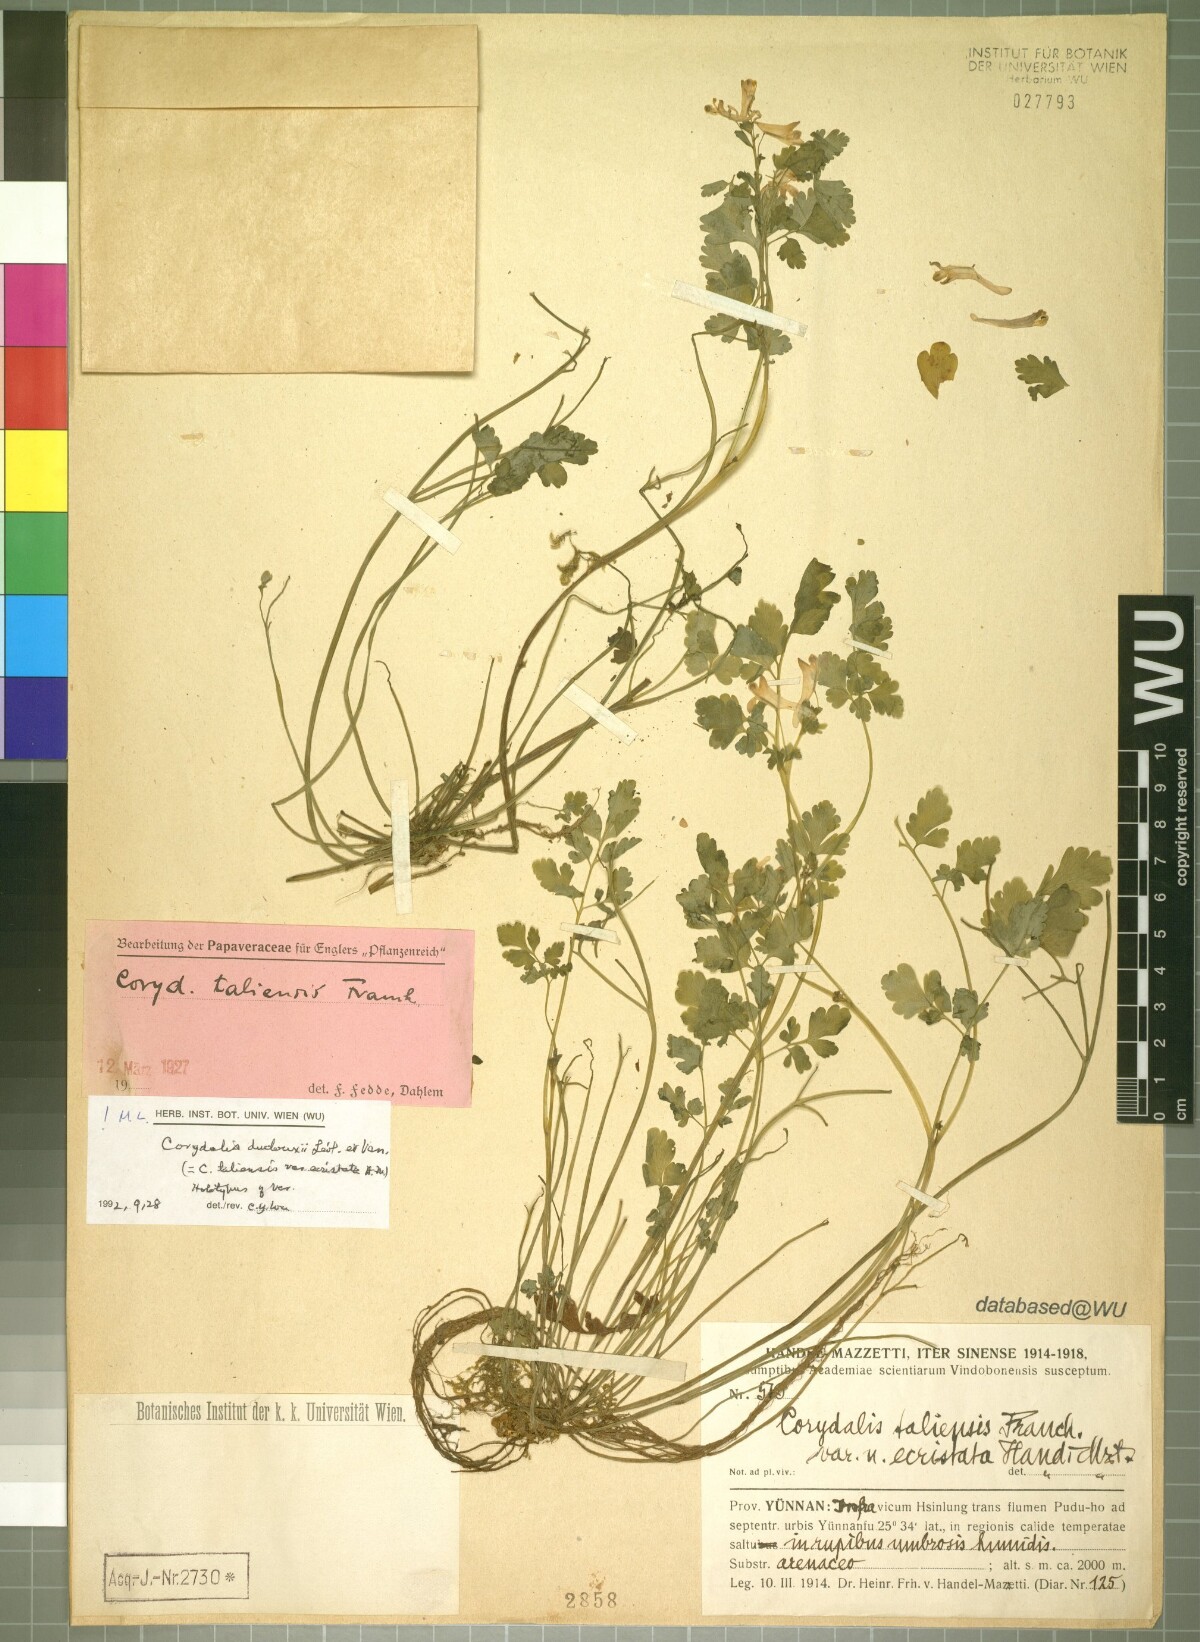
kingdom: Plantae
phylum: Tracheophyta
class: Magnoliopsida
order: Ranunculales
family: Papaveraceae
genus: Corydalis
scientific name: Corydalis duclouxii
